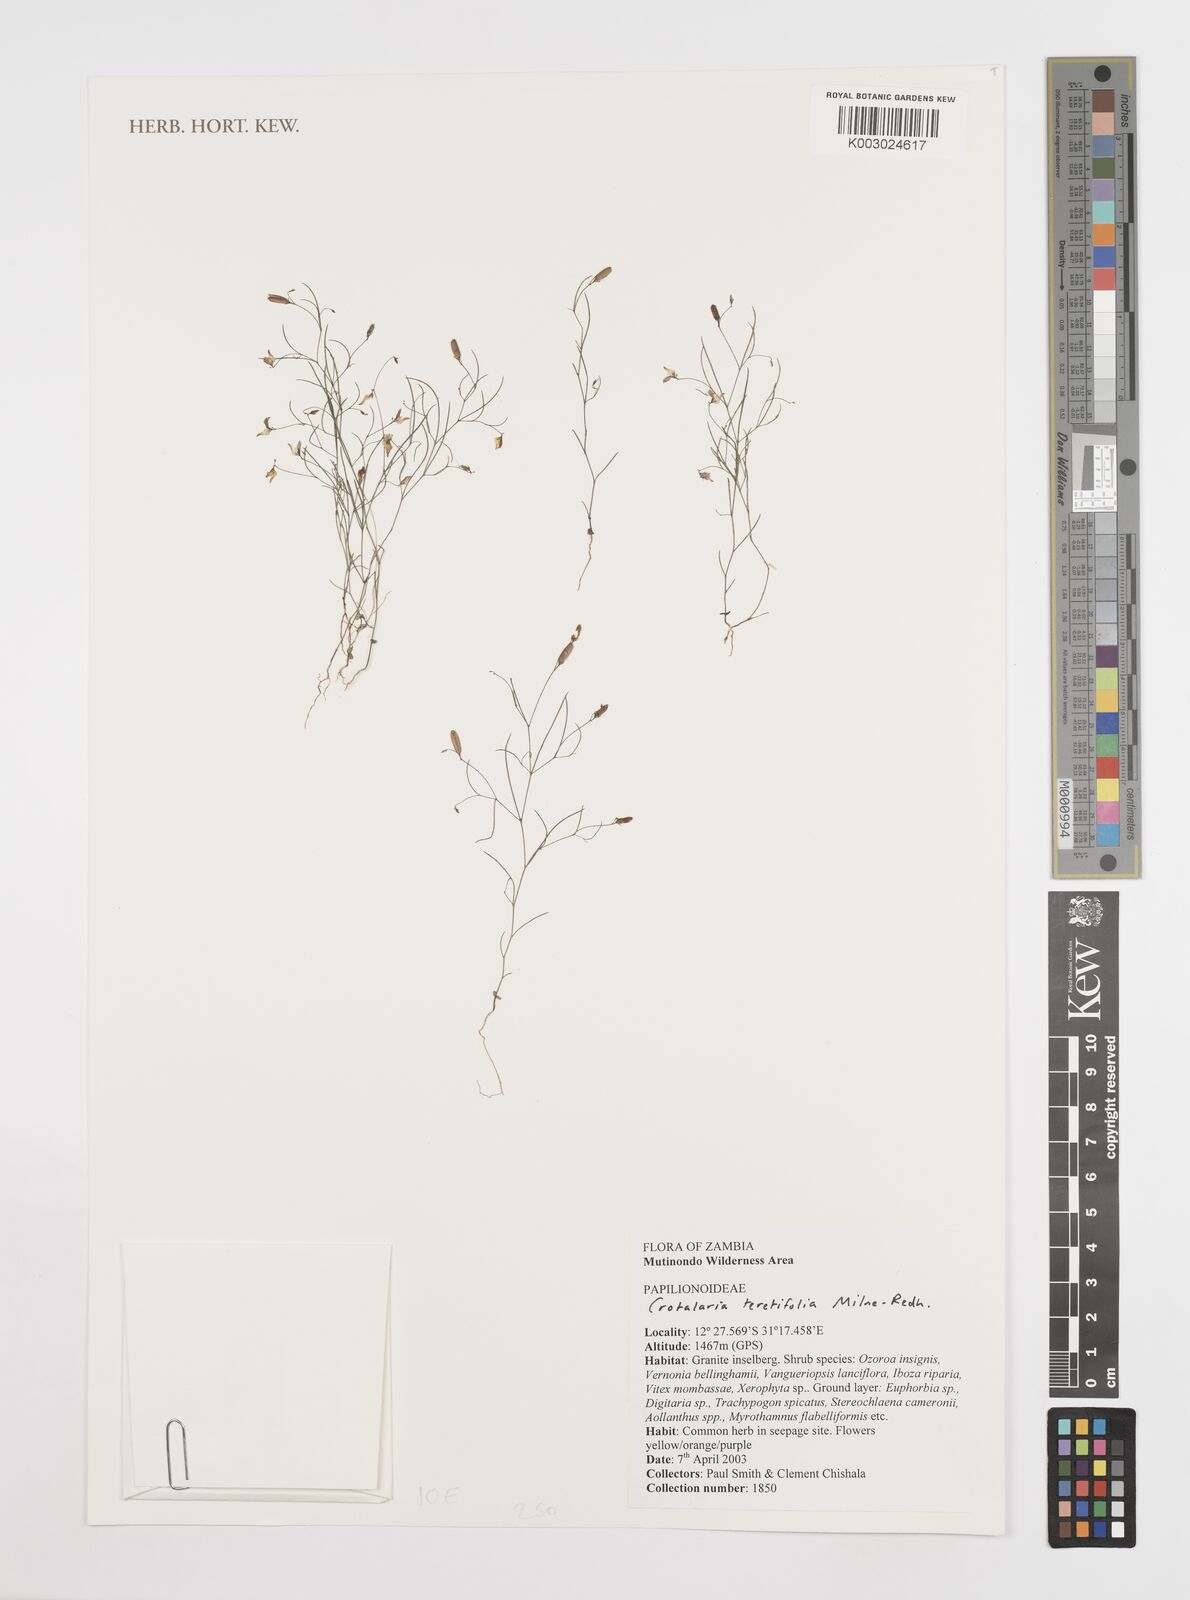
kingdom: Plantae
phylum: Tracheophyta
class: Magnoliopsida
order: Fabales
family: Fabaceae
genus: Crotalaria
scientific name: Crotalaria teretifolia
